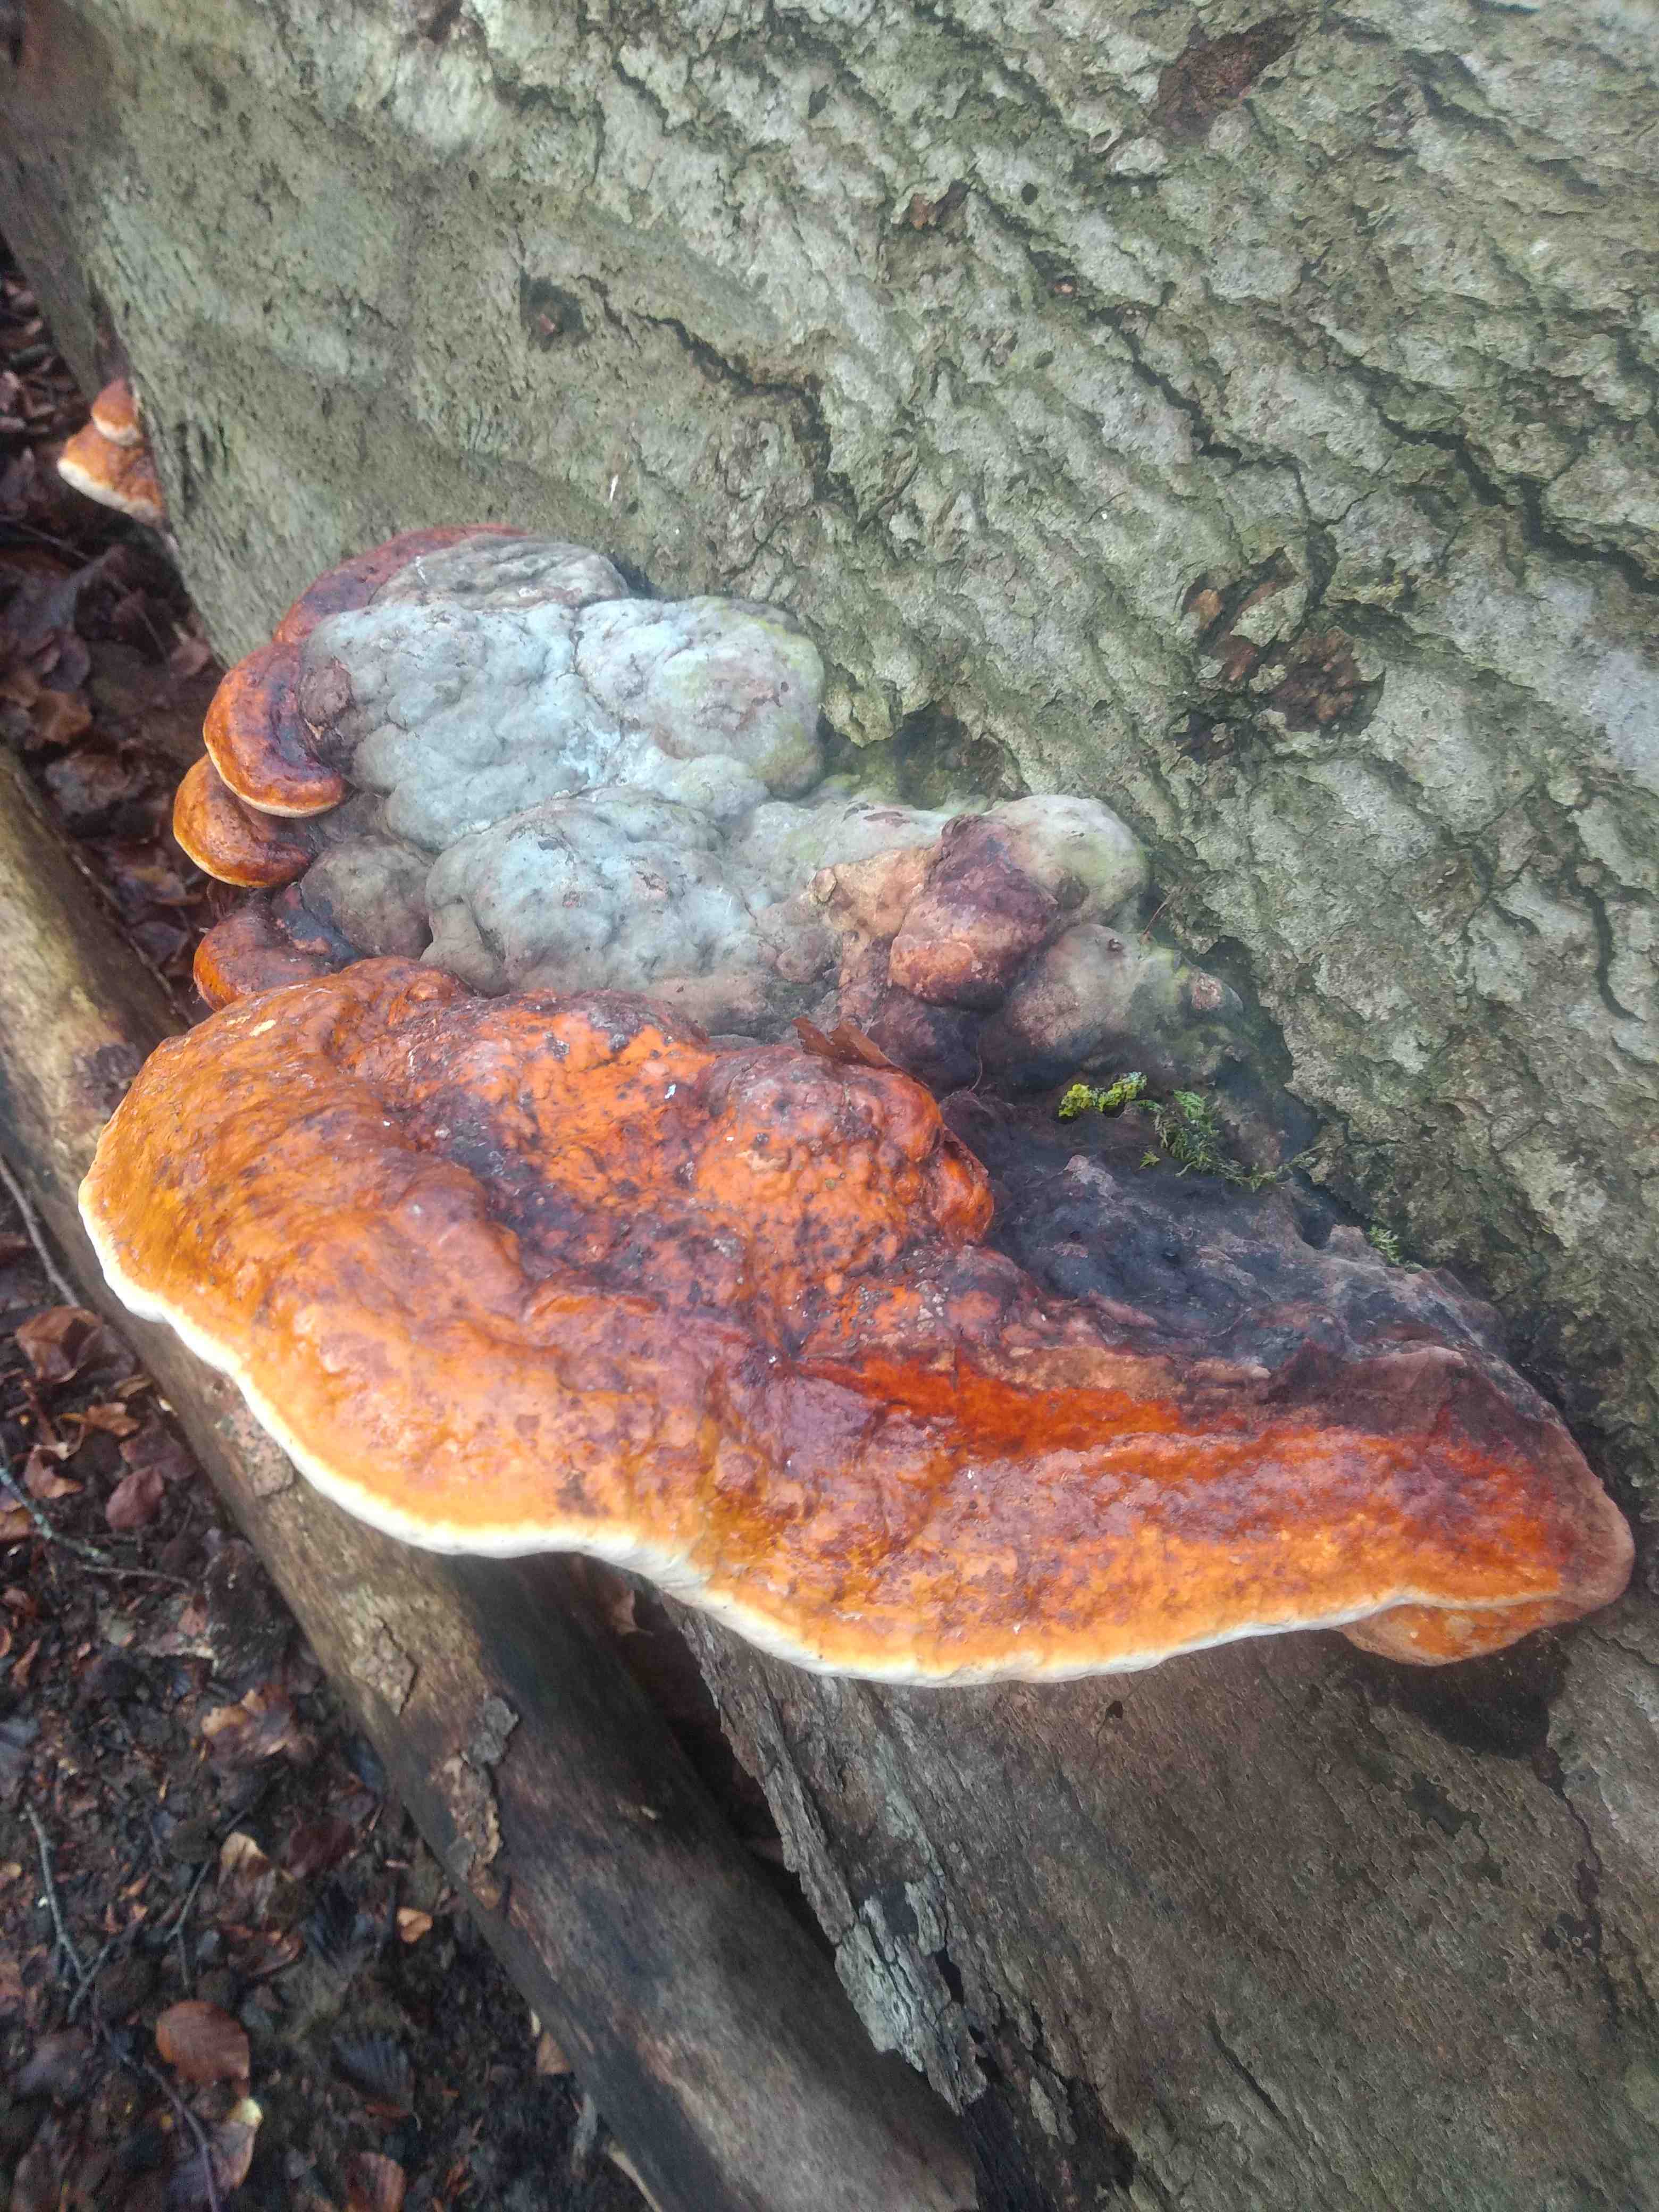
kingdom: Fungi
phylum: Basidiomycota
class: Agaricomycetes
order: Polyporales
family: Fomitopsidaceae
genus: Fomitopsis
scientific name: Fomitopsis pinicola
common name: randbæltet hovporesvamp
